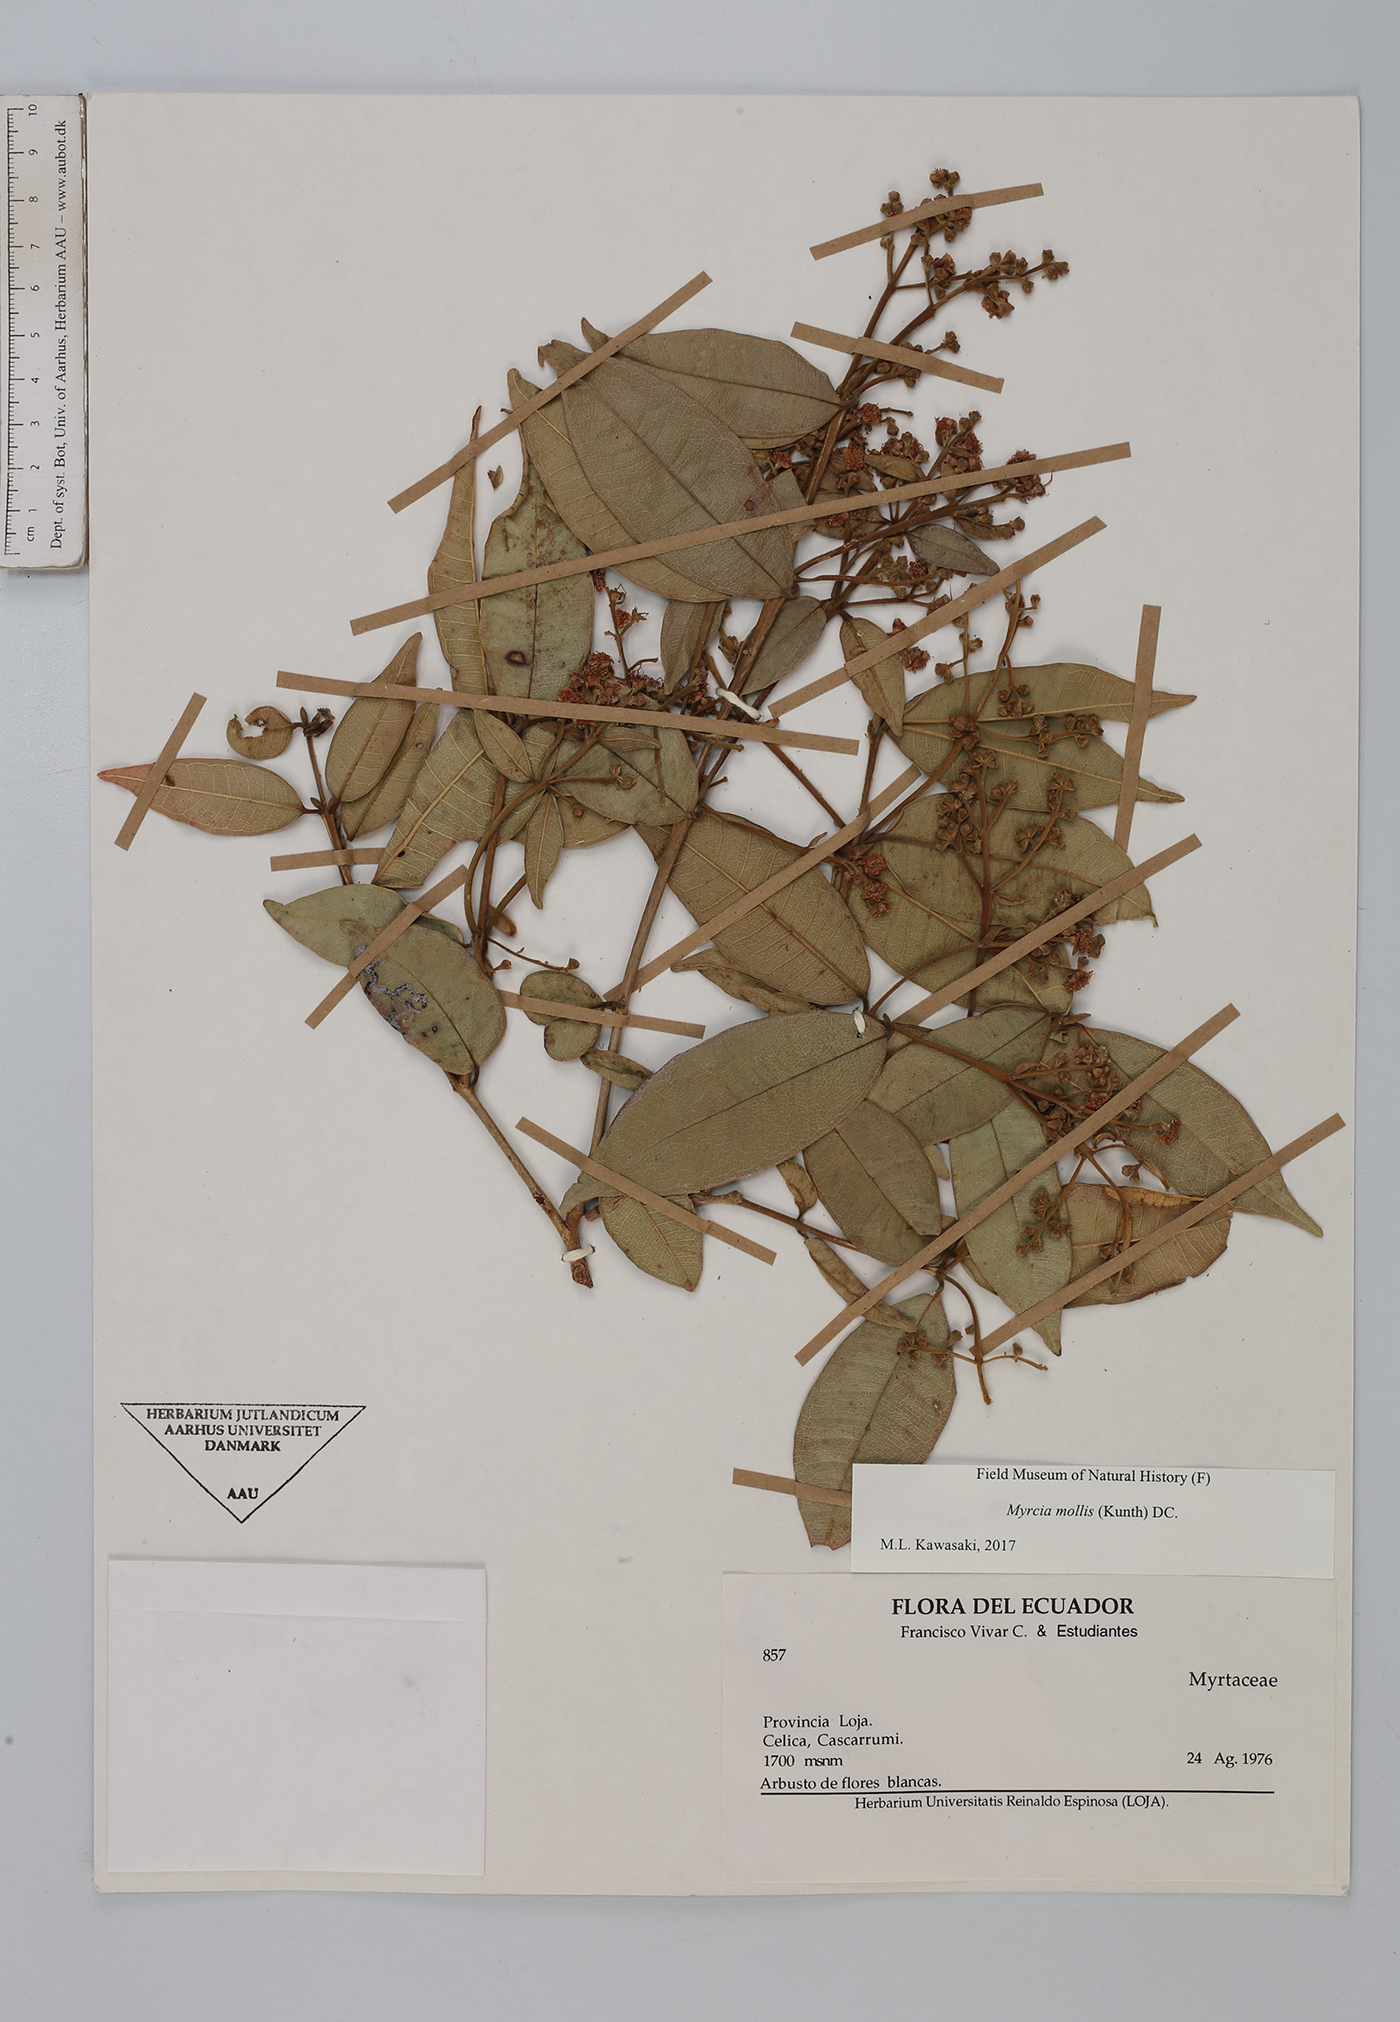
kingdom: Plantae
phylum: Tracheophyta
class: Magnoliopsida
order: Myrtales
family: Myrtaceae
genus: Myrcia
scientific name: Myrcia mollis
